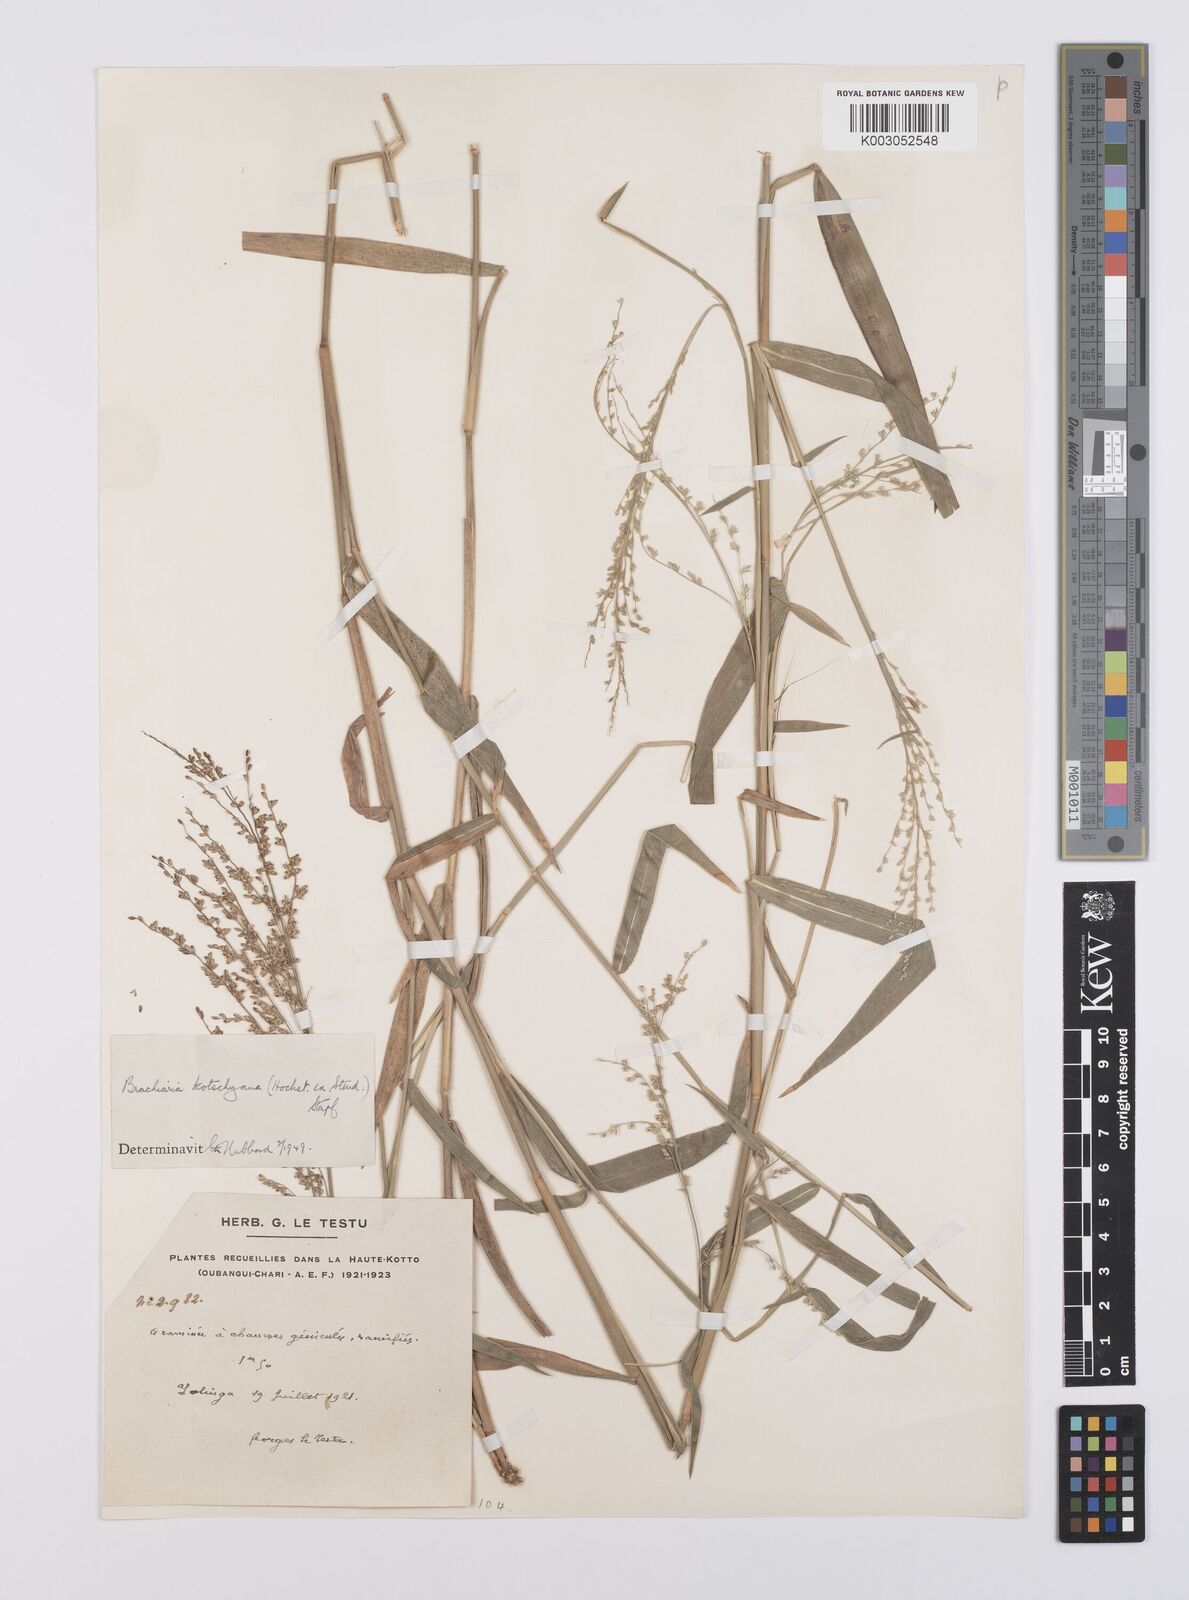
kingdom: Plantae
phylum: Tracheophyta
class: Liliopsida
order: Poales
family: Poaceae
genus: Urochloa
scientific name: Urochloa comata
